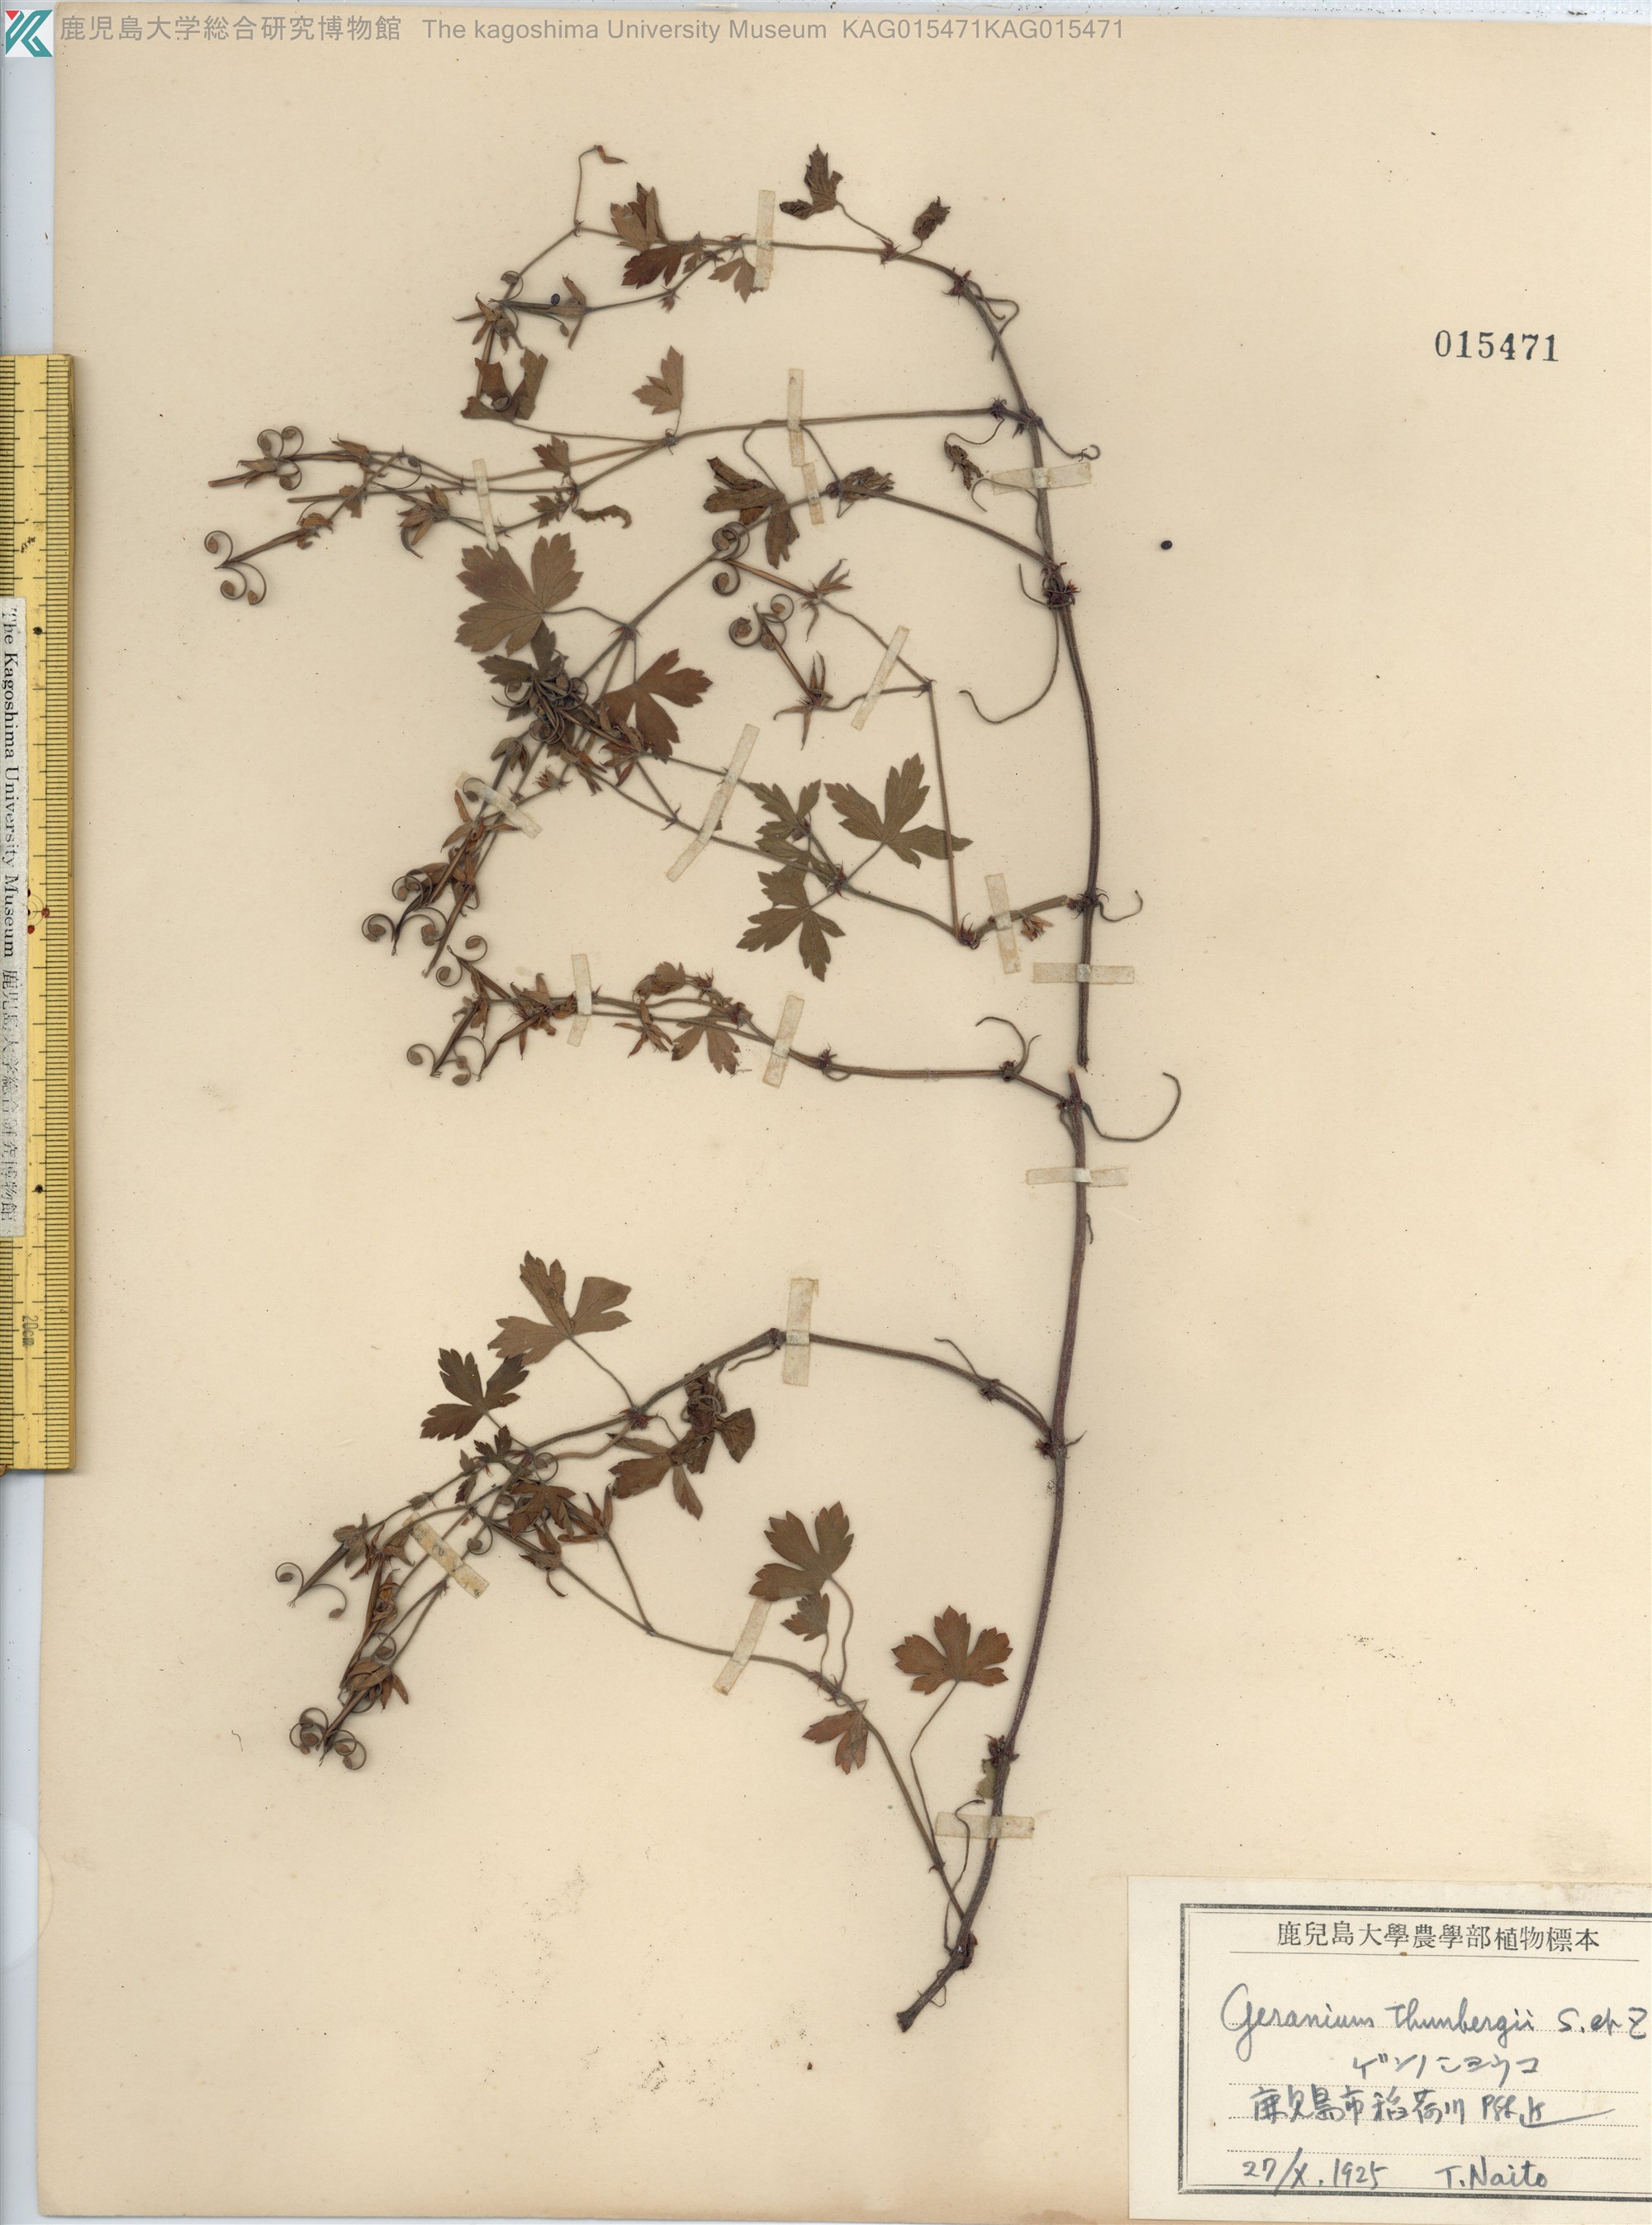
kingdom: Plantae
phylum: Tracheophyta
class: Magnoliopsida
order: Geraniales
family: Geraniaceae
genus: Geranium
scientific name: Geranium thunbergii
